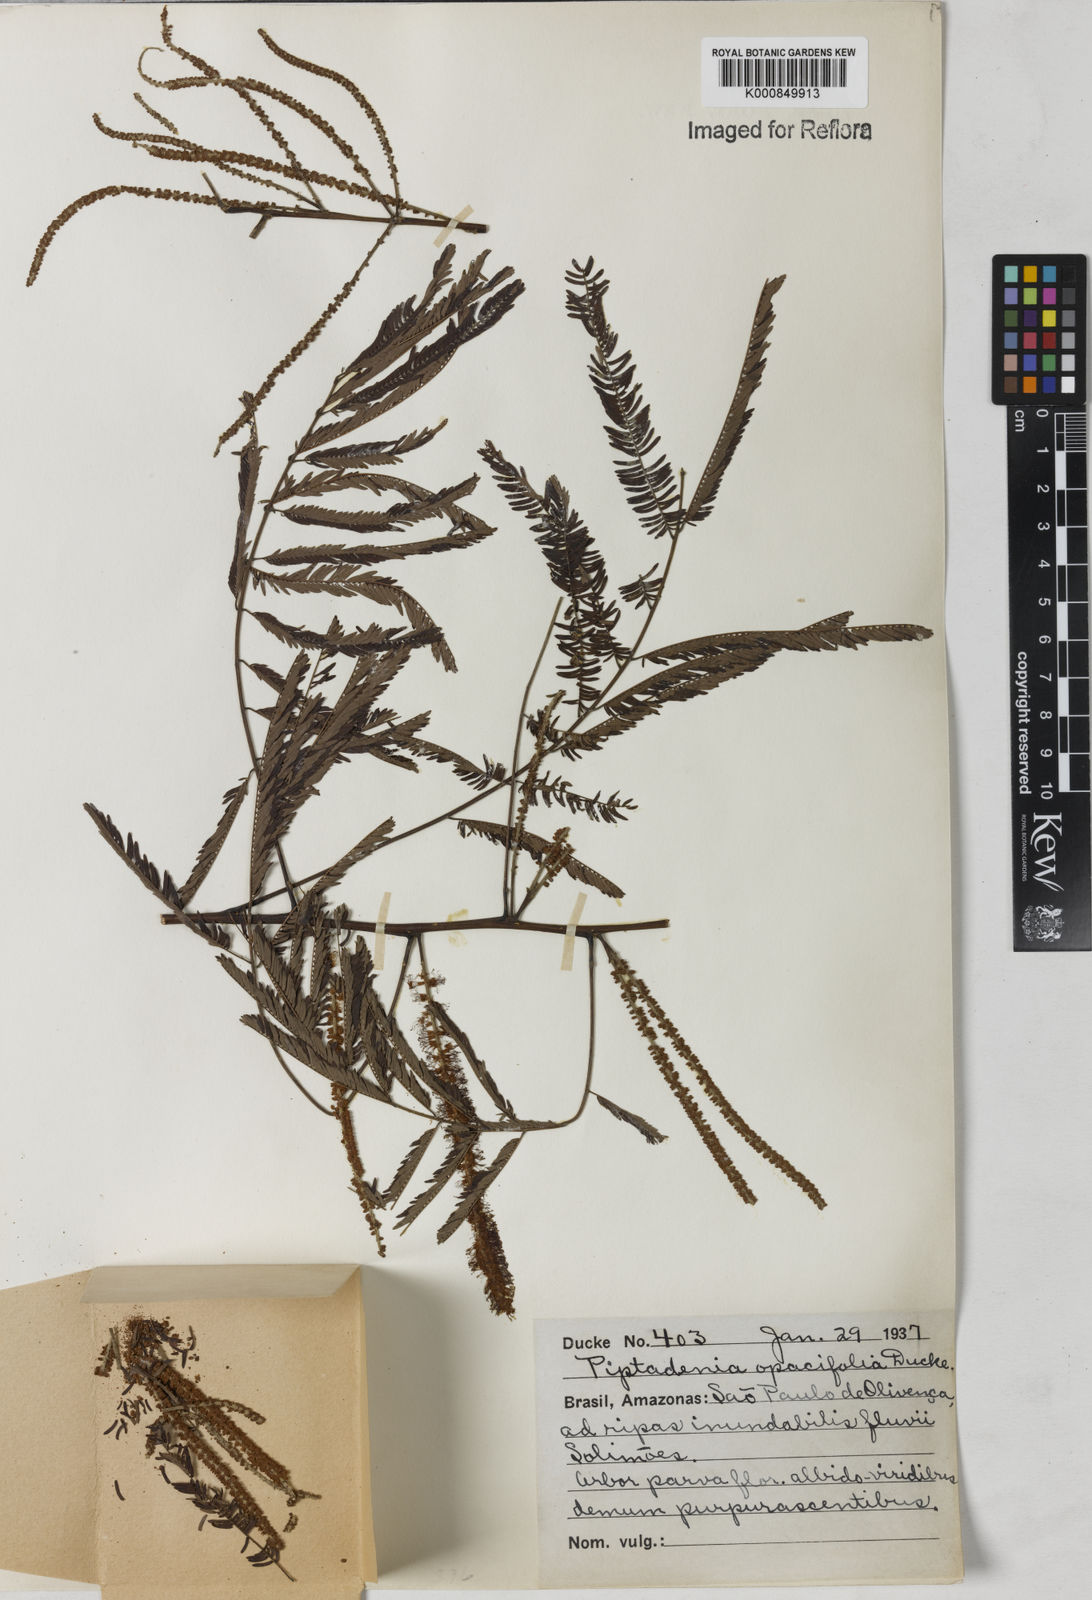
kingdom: Plantae
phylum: Tracheophyta
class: Magnoliopsida
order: Fabales
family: Fabaceae
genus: Piptadenia
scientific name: Piptadenia pteroclada
